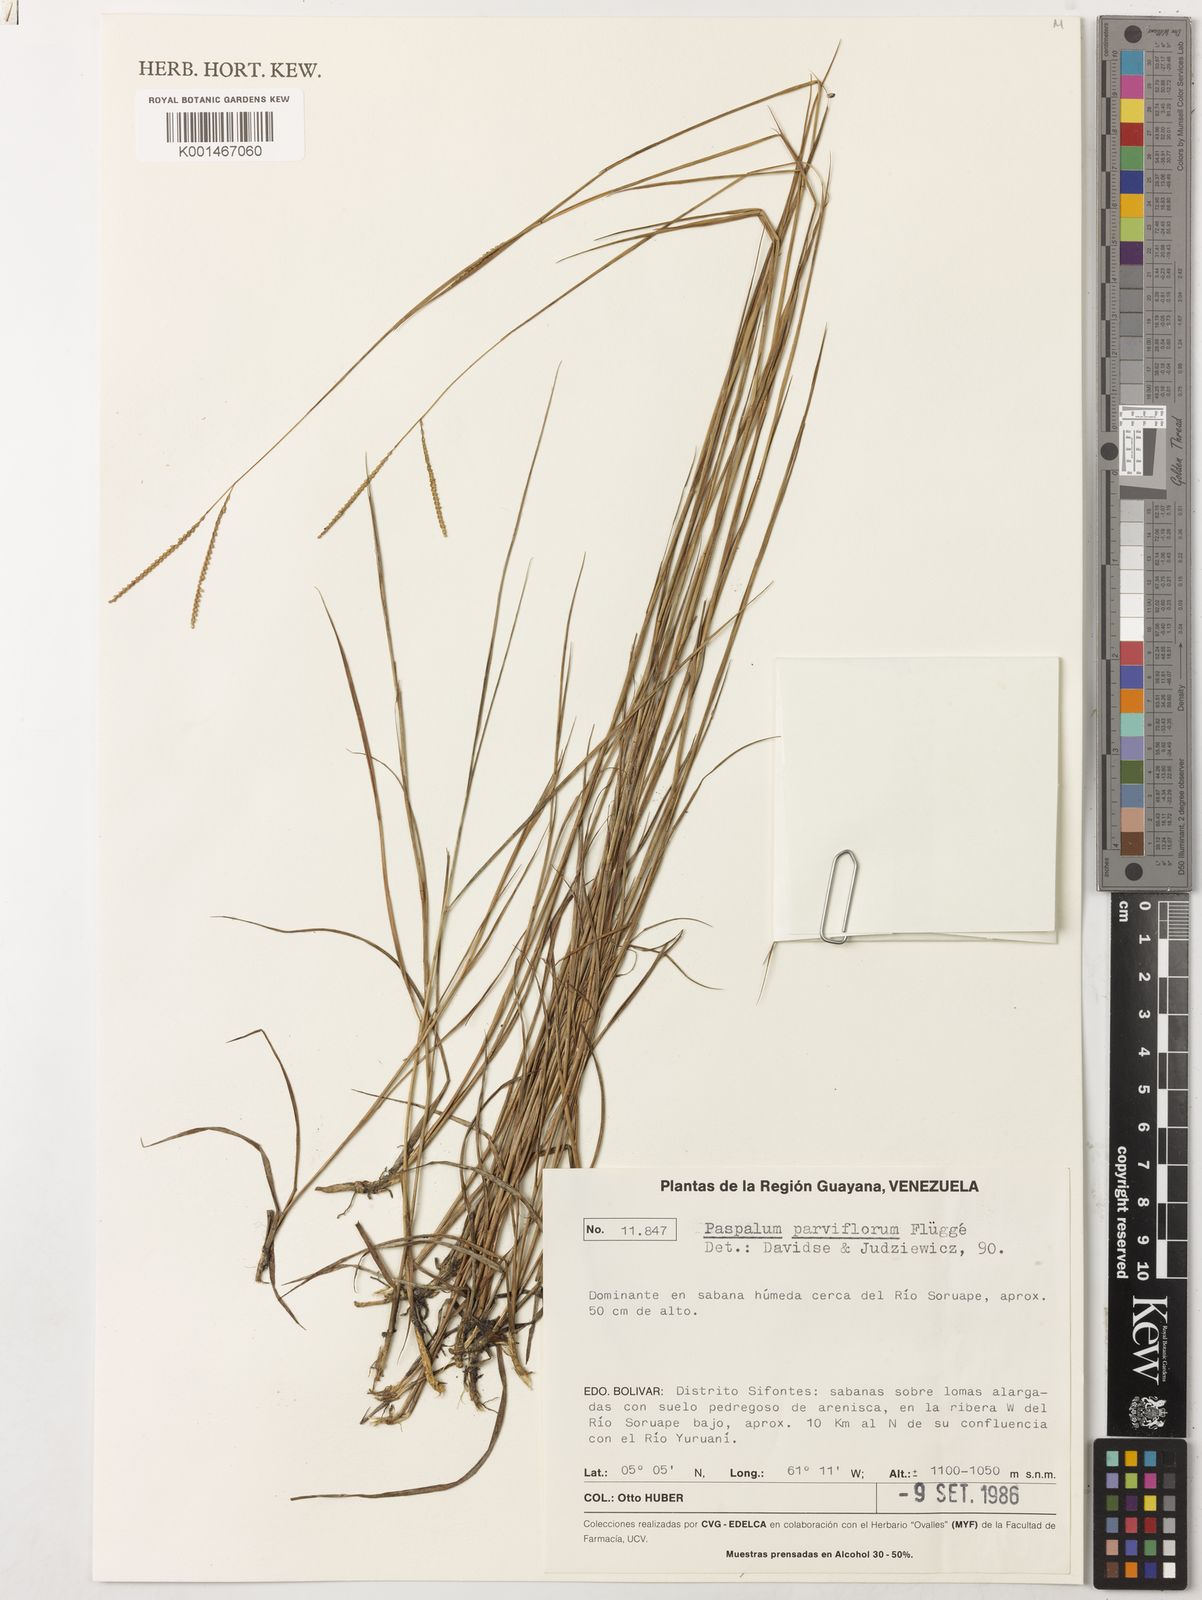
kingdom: Plantae
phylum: Tracheophyta
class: Liliopsida
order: Poales
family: Poaceae
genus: Paspalum
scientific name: Paspalum parviflorum
